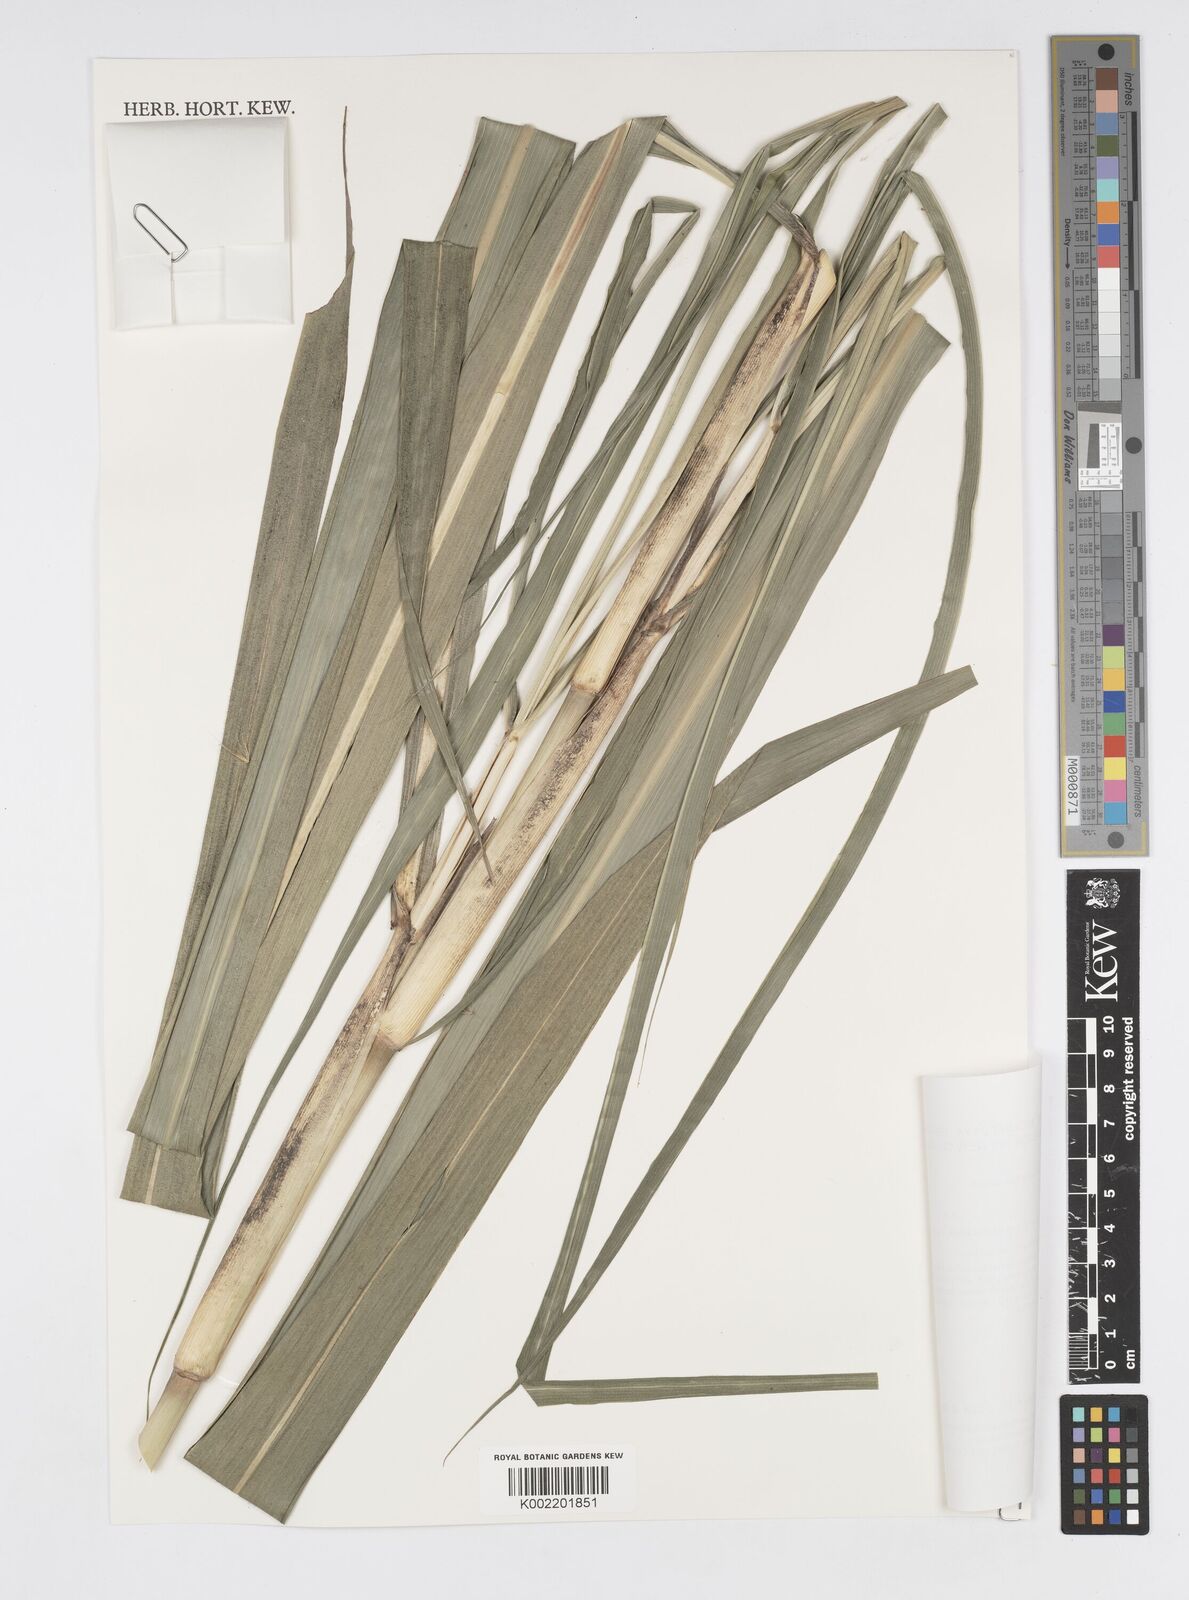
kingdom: Plantae
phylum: Tracheophyta
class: Liliopsida
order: Poales
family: Poaceae
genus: Cenchrus
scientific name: Cenchrus purpureus
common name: Elephant grass
